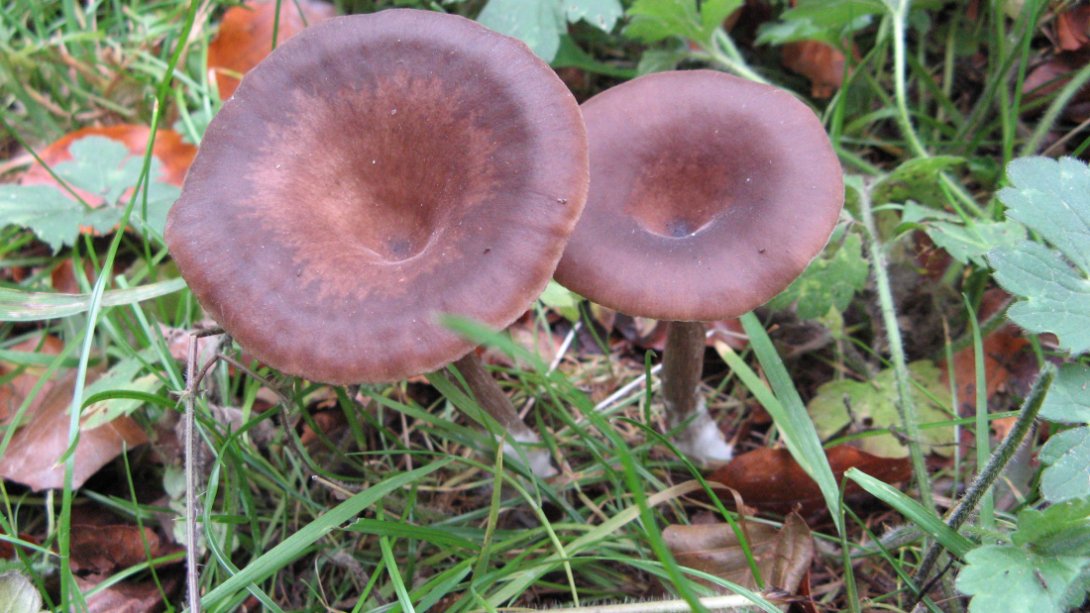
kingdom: Fungi
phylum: Basidiomycota
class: Agaricomycetes
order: Agaricales
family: Pseudoclitocybaceae
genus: Pseudoclitocybe
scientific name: Pseudoclitocybe cyathiformis
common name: almindelig bægertragthat
